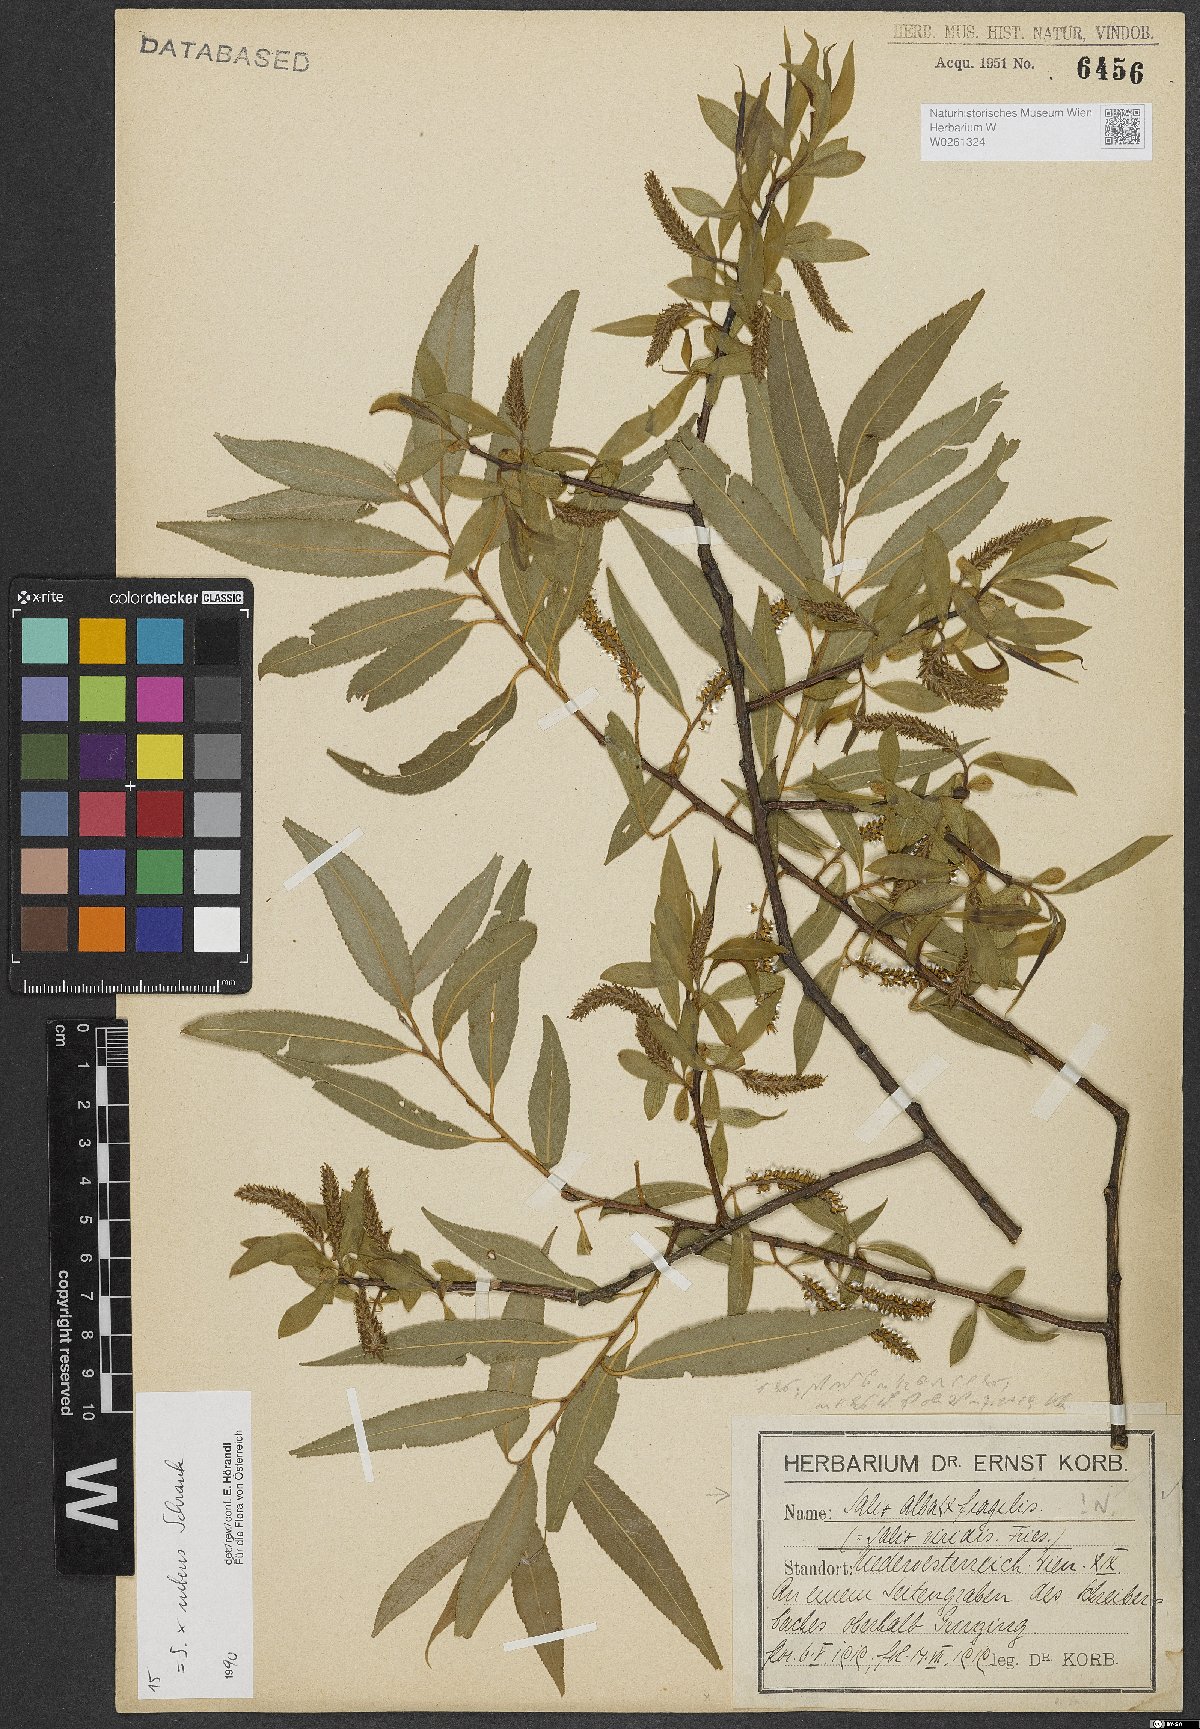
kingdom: Plantae
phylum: Tracheophyta
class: Magnoliopsida
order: Malpighiales
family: Salicaceae
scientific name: Salicaceae
